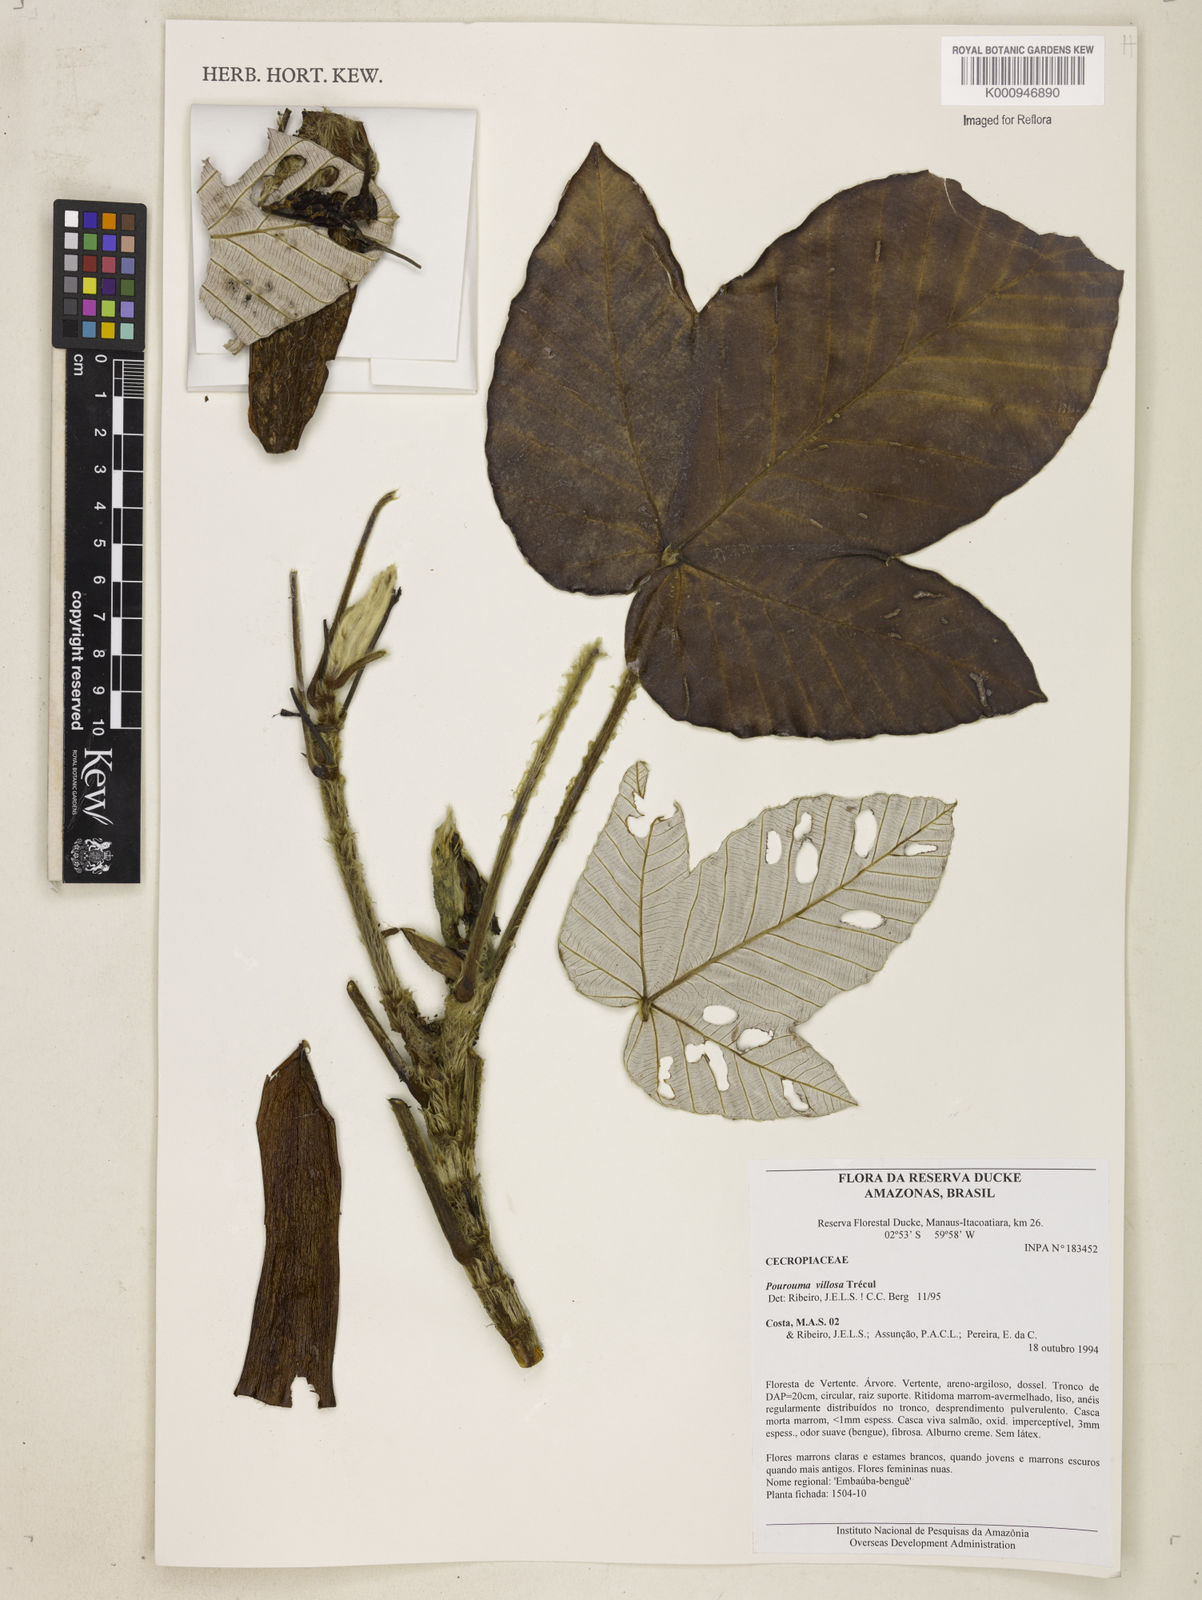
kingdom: Plantae
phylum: Tracheophyta
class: Magnoliopsida
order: Rosales
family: Urticaceae
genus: Pourouma
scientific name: Pourouma
